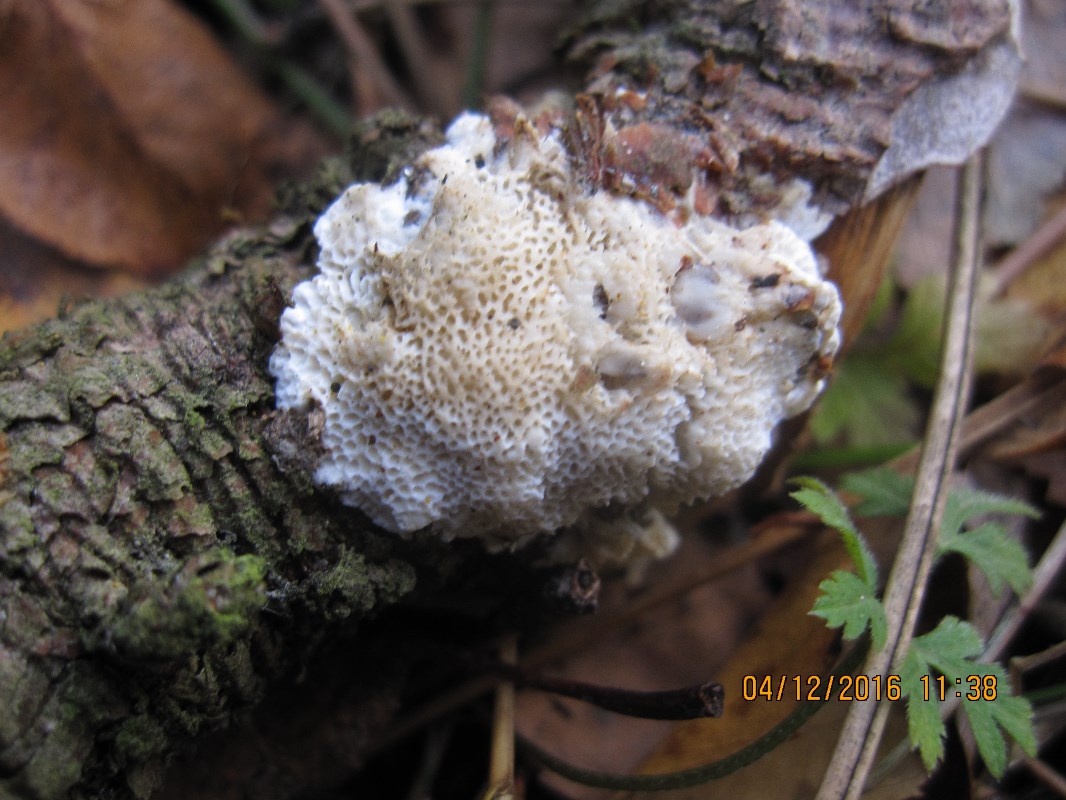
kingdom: Fungi
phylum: Basidiomycota
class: Agaricomycetes
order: Polyporales
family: Fomitopsidaceae
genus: Fomitopsis
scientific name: Fomitopsis
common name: fyrre-skiveporesvamp
